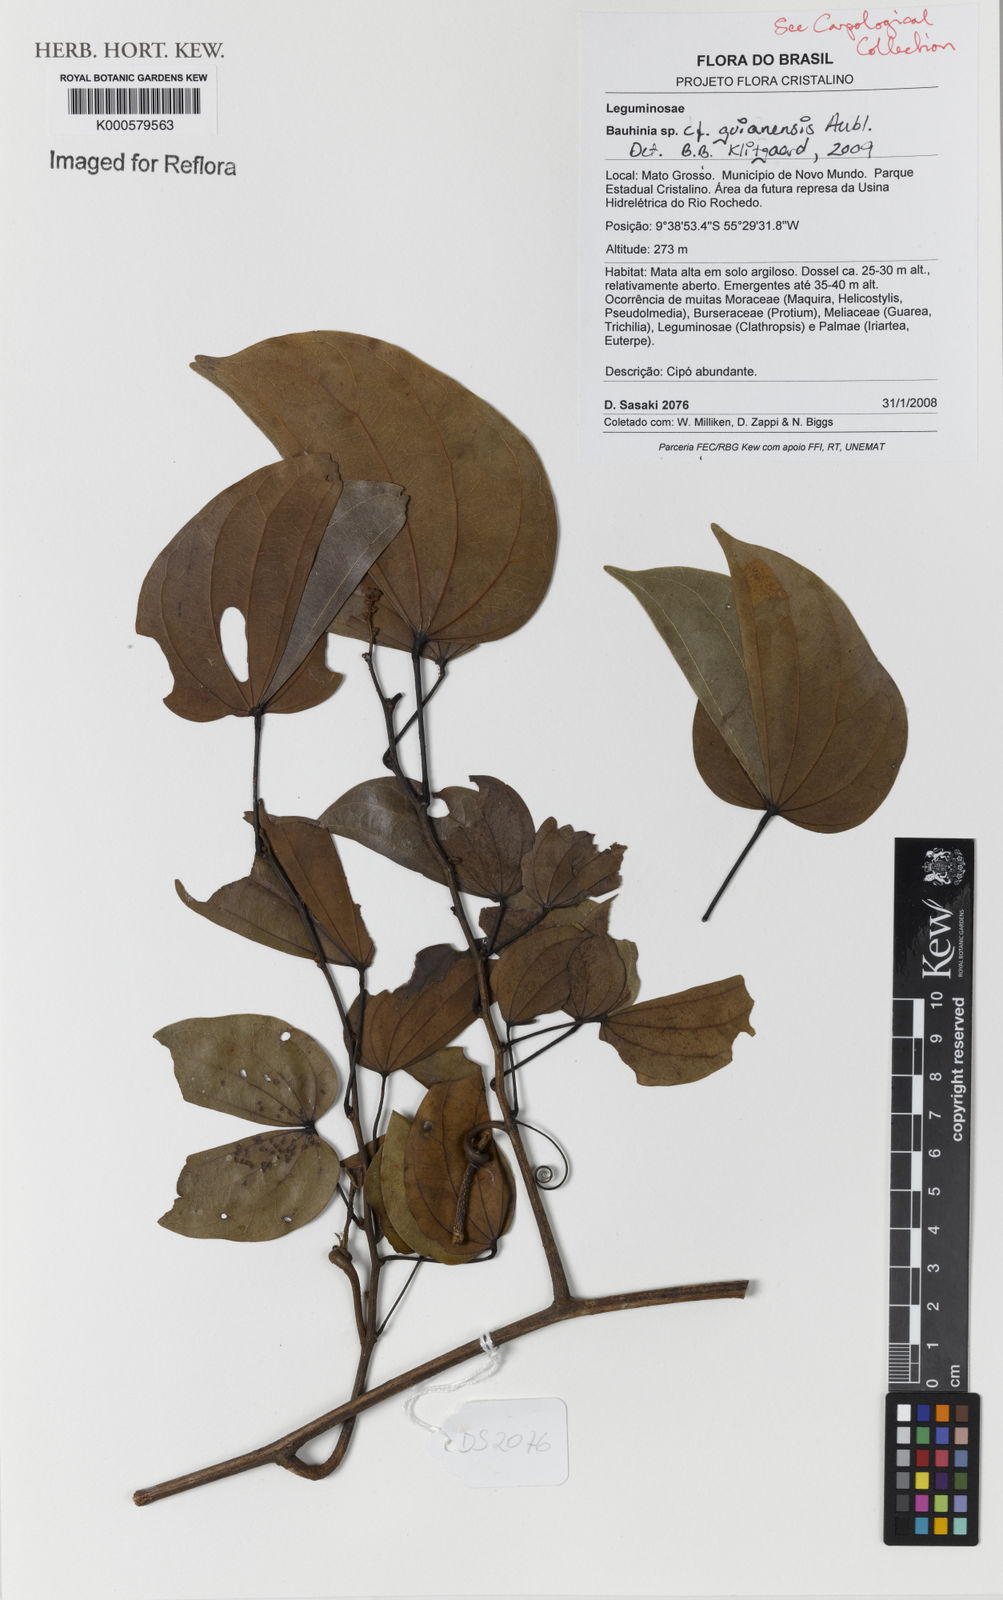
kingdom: Plantae
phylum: Tracheophyta
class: Magnoliopsida
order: Fabales
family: Fabaceae
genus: Schnella
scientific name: Schnella guianensis
